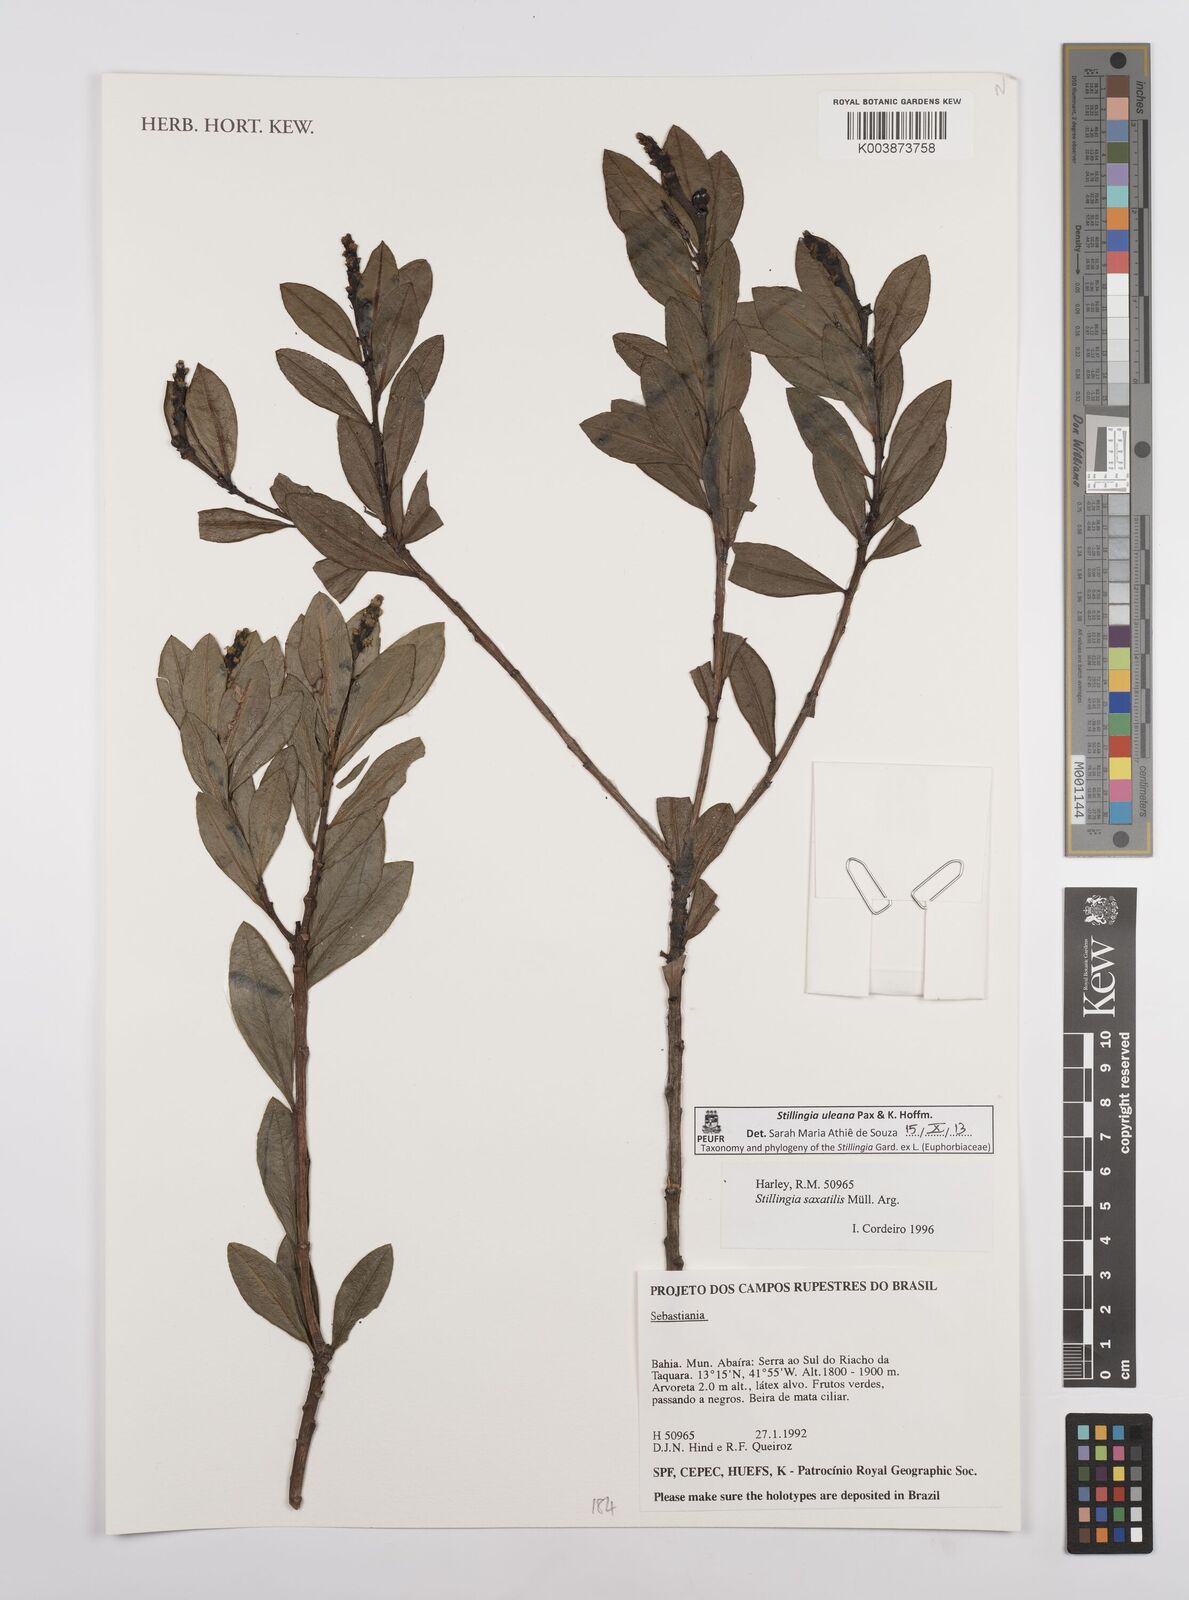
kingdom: Plantae
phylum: Tracheophyta
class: Magnoliopsida
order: Malpighiales
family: Euphorbiaceae
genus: Stillingia
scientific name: Stillingia uleana
